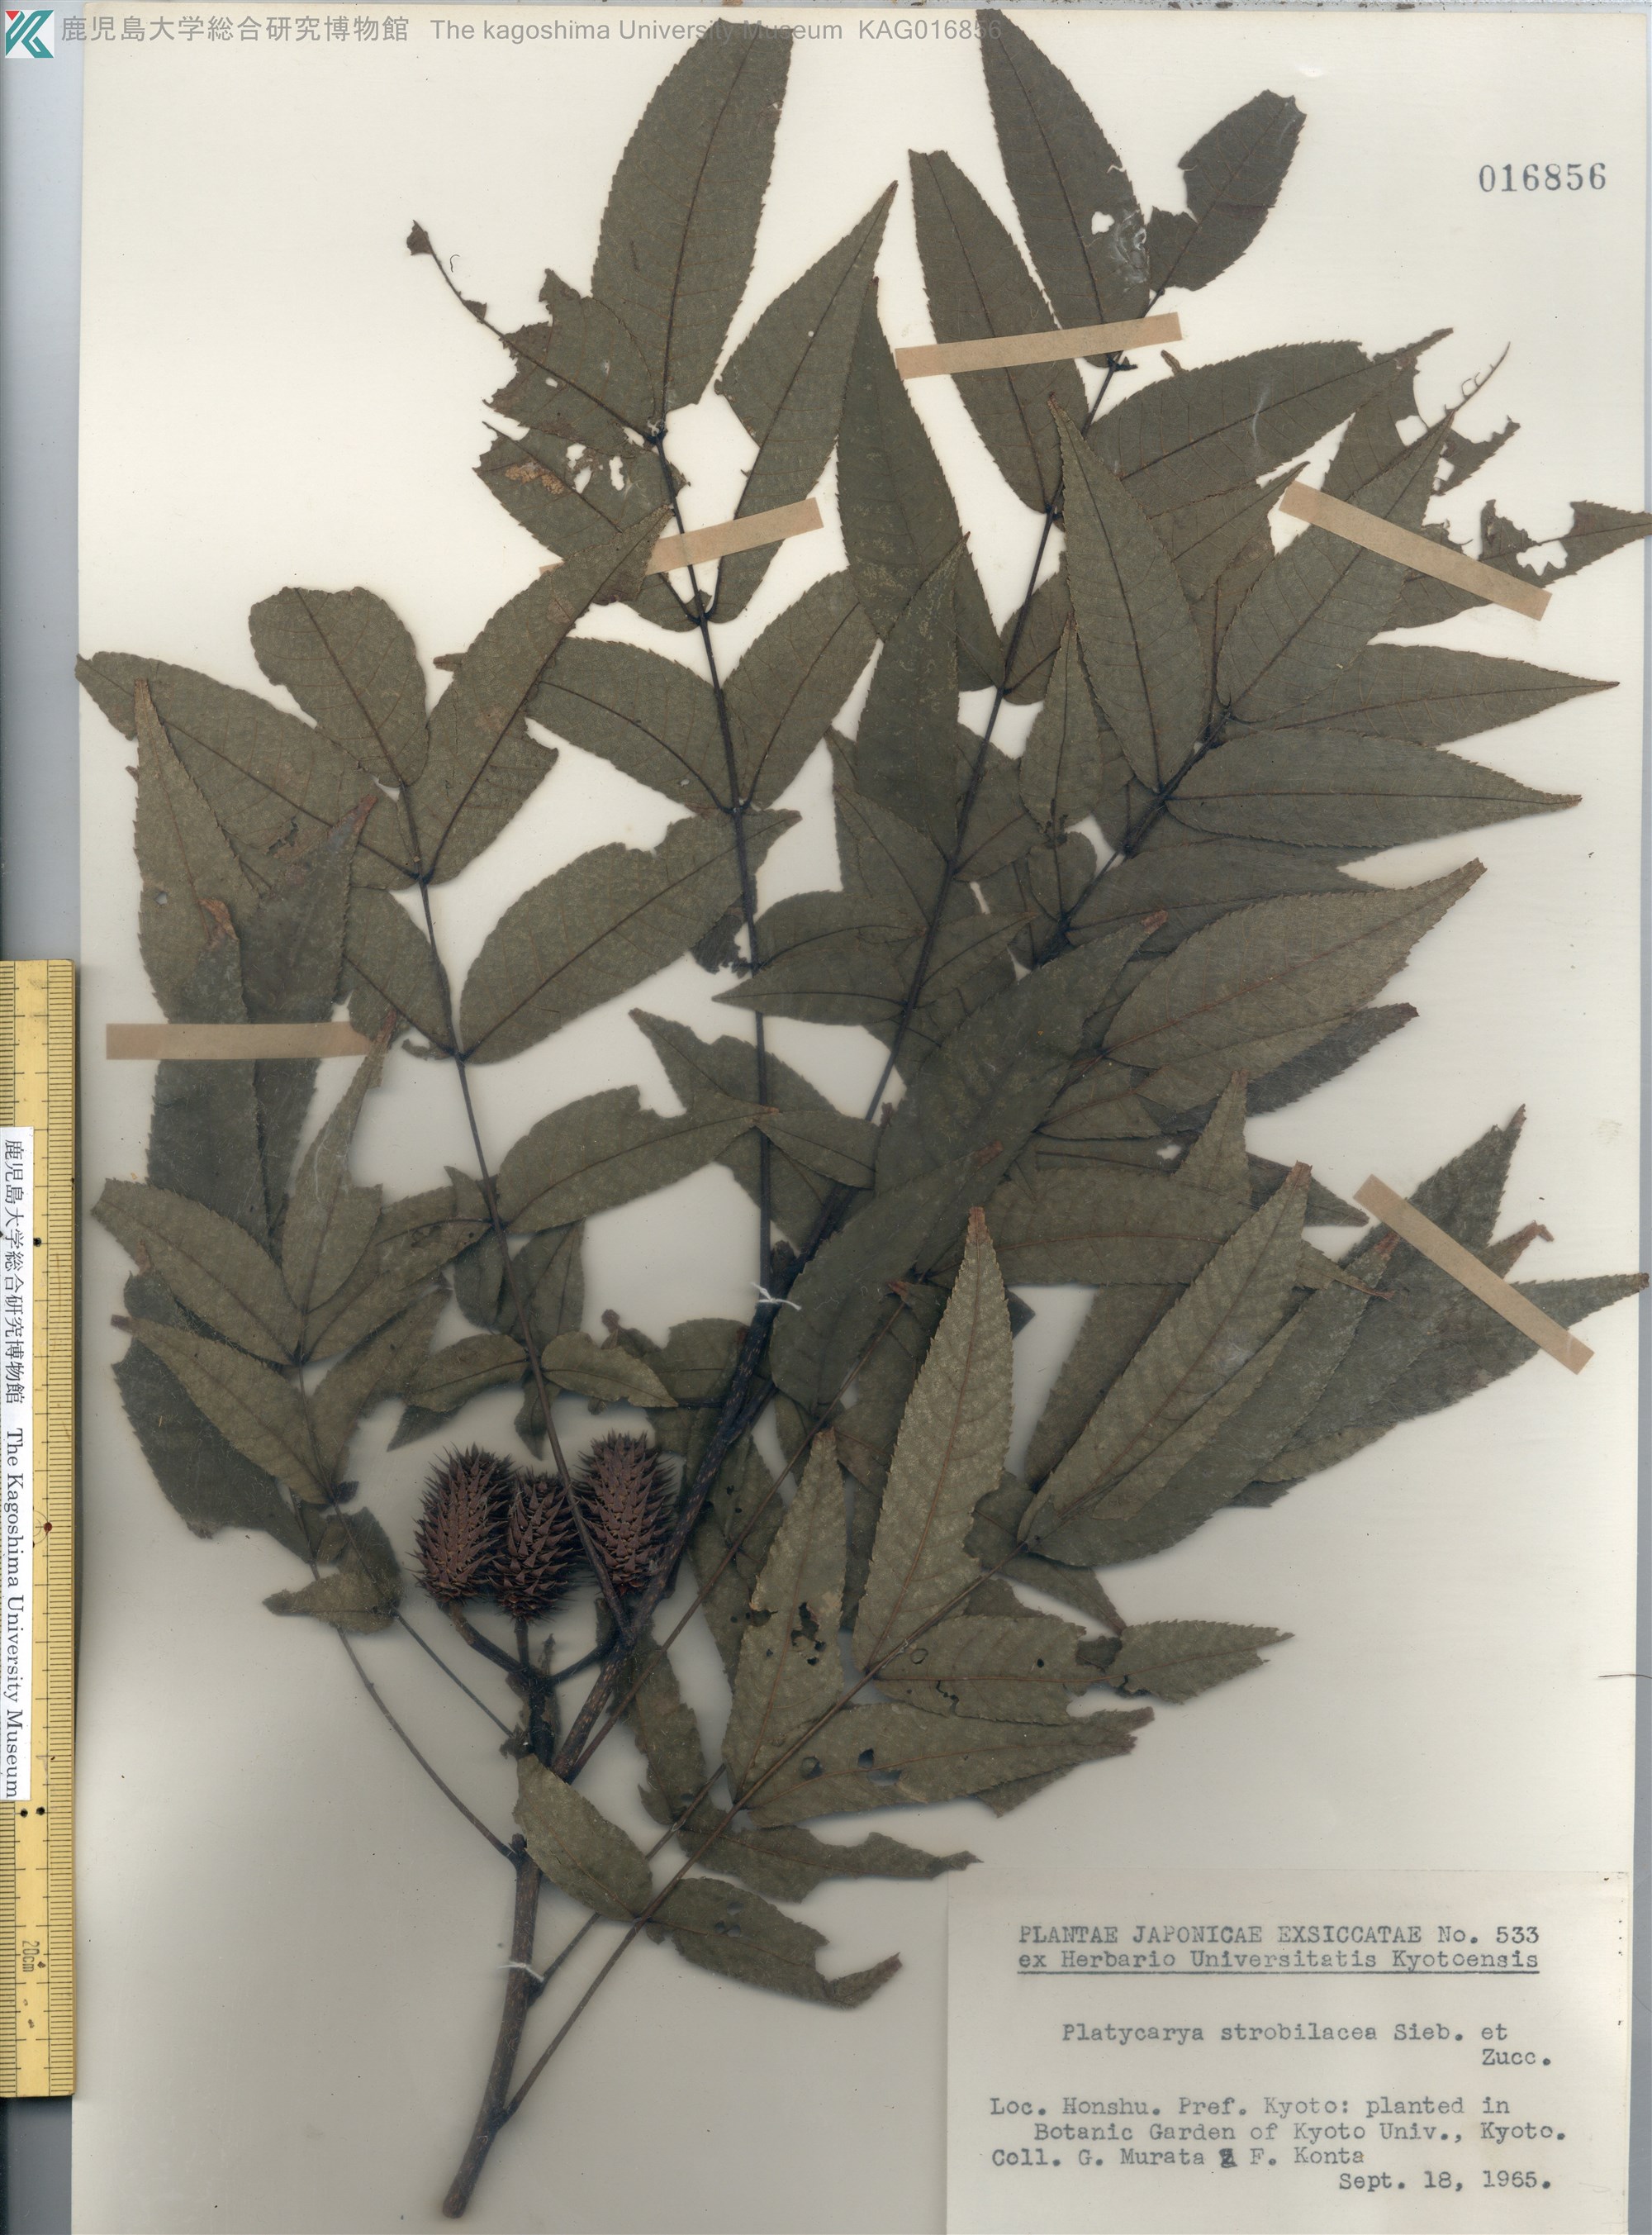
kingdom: Plantae
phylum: Tracheophyta
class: Magnoliopsida
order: Fagales
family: Juglandaceae
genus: Platycarya
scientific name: Platycarya strobilacea
